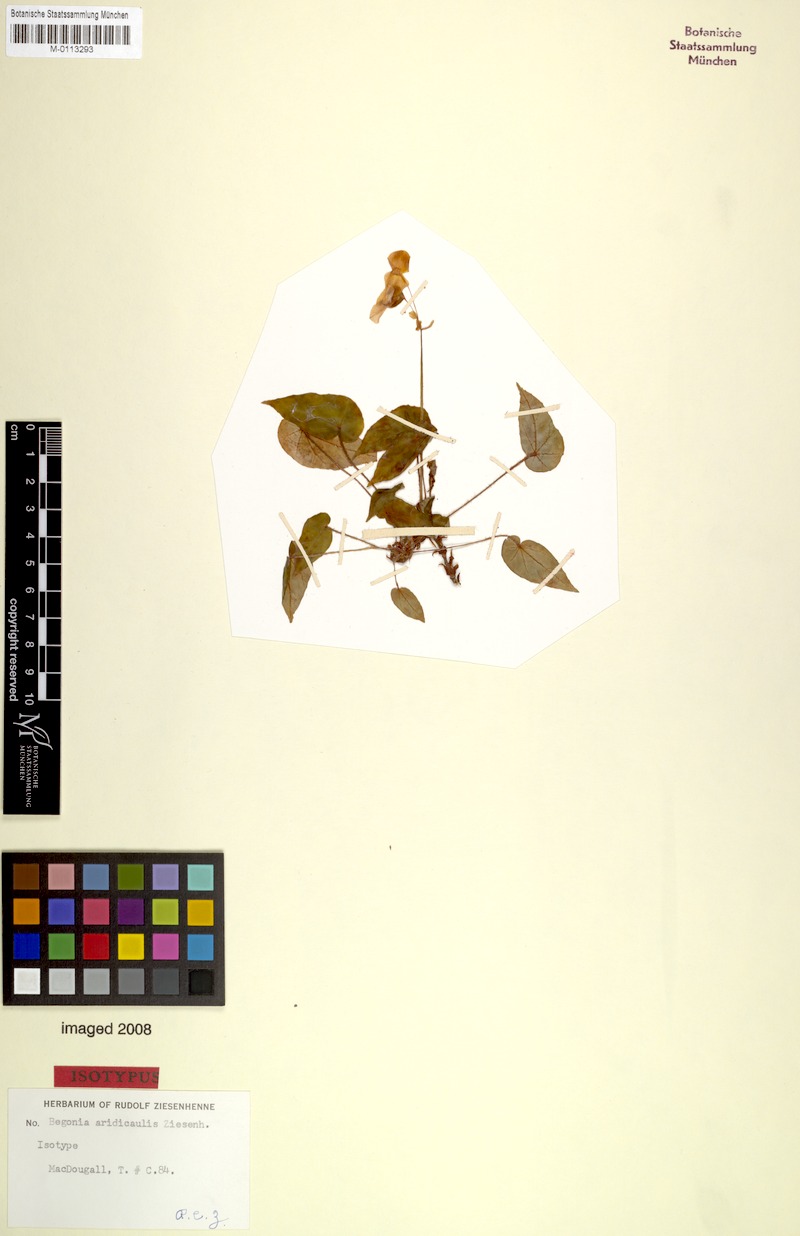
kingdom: Plantae
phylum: Tracheophyta
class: Magnoliopsida
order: Cucurbitales
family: Begoniaceae
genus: Begonia
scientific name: Begonia aridicaulis
